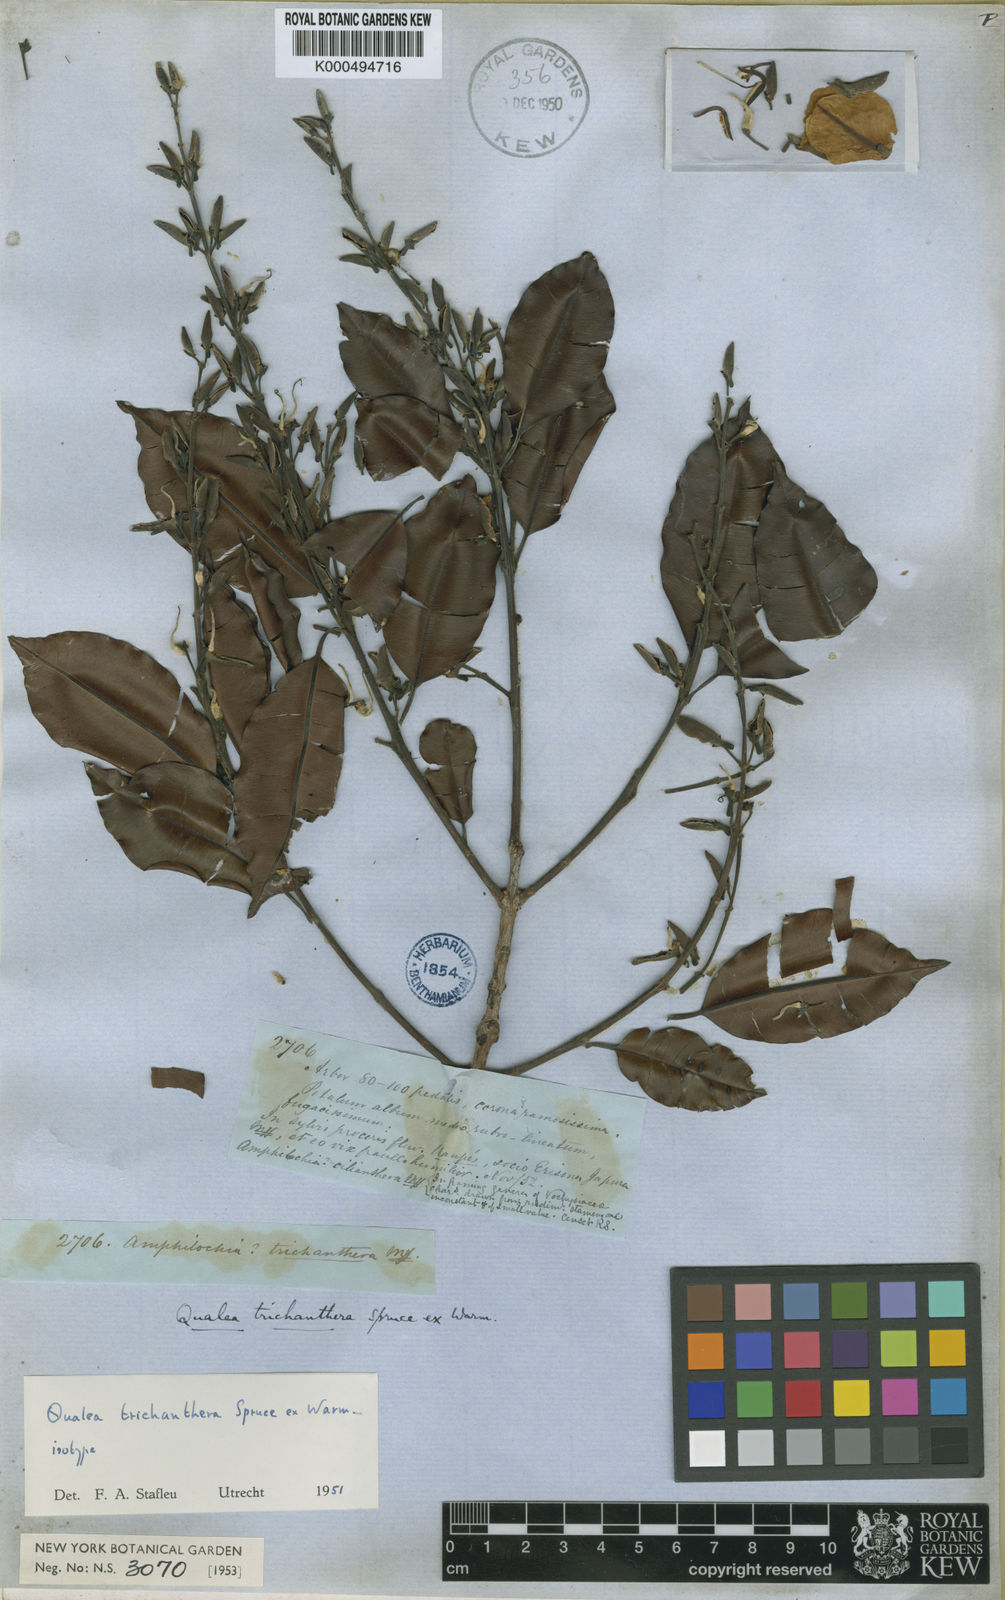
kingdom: Plantae
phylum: Tracheophyta
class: Magnoliopsida
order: Myrtales
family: Vochysiaceae
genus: Ruizterania
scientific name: Ruizterania trichanthera
